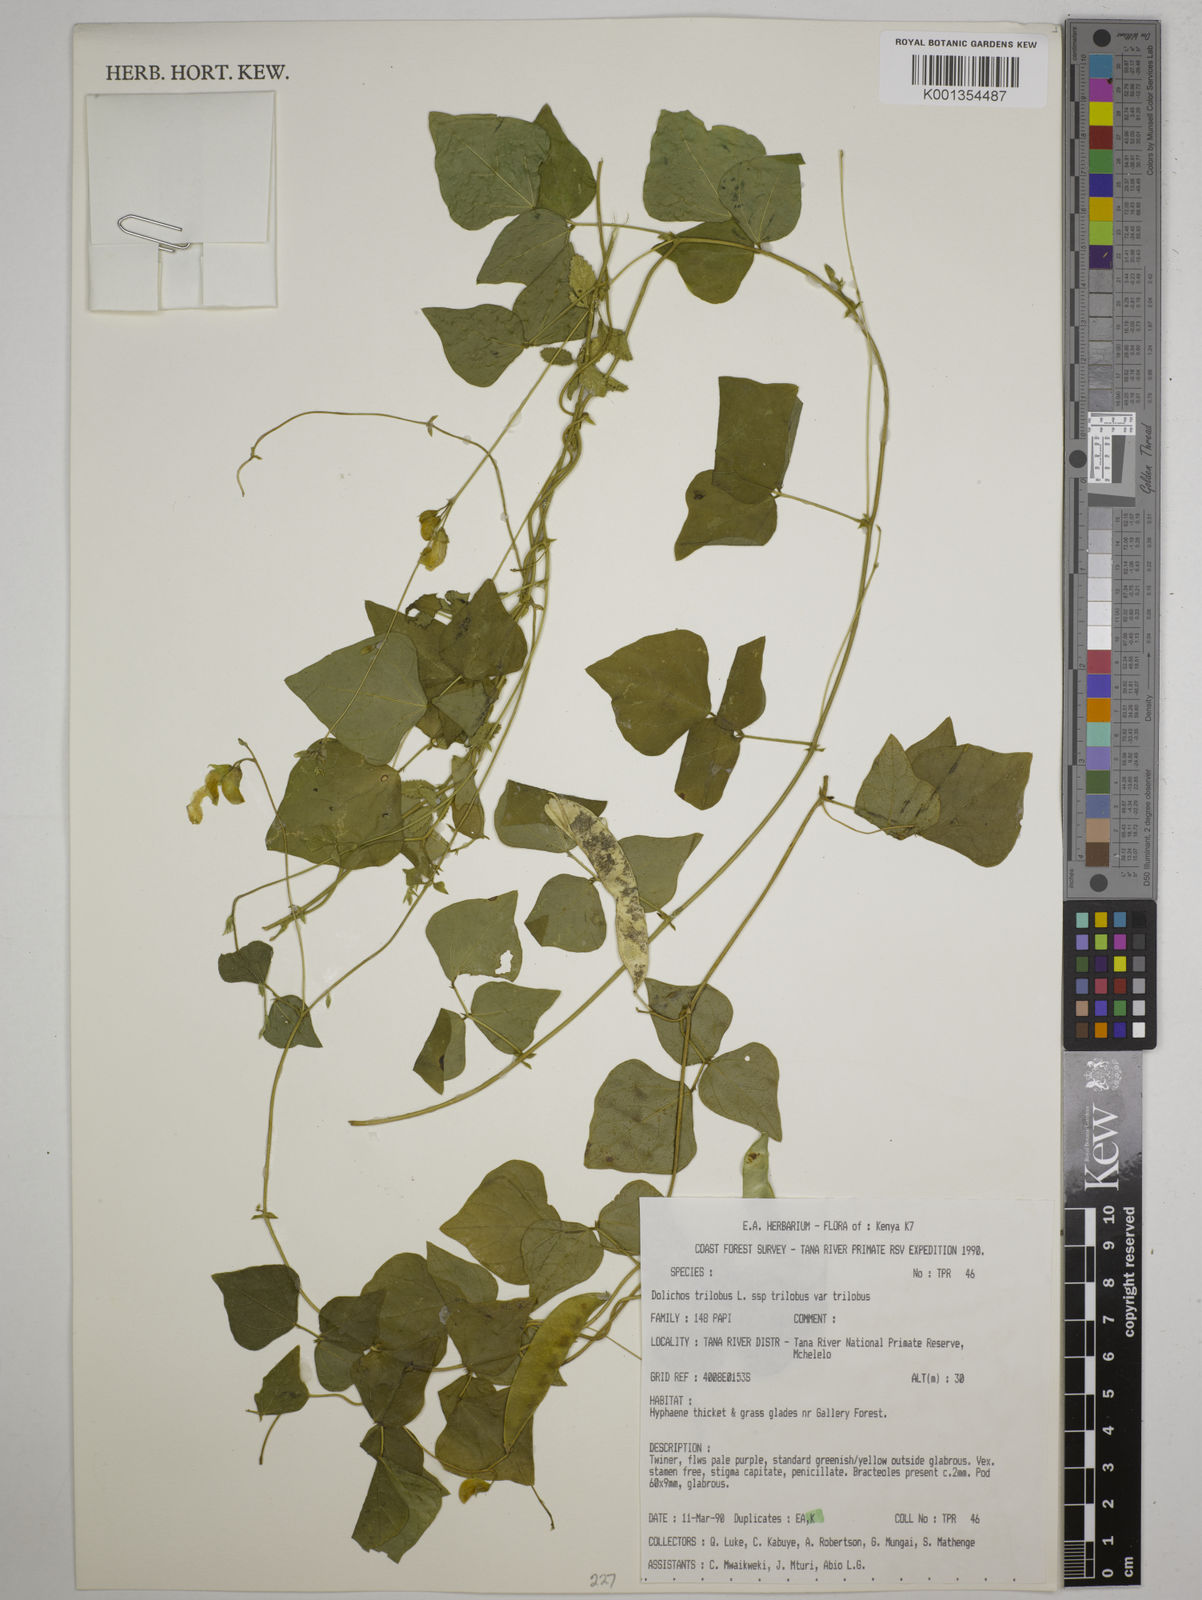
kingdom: Plantae
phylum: Tracheophyta
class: Magnoliopsida
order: Fabales
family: Fabaceae
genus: Dolichos
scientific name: Dolichos
